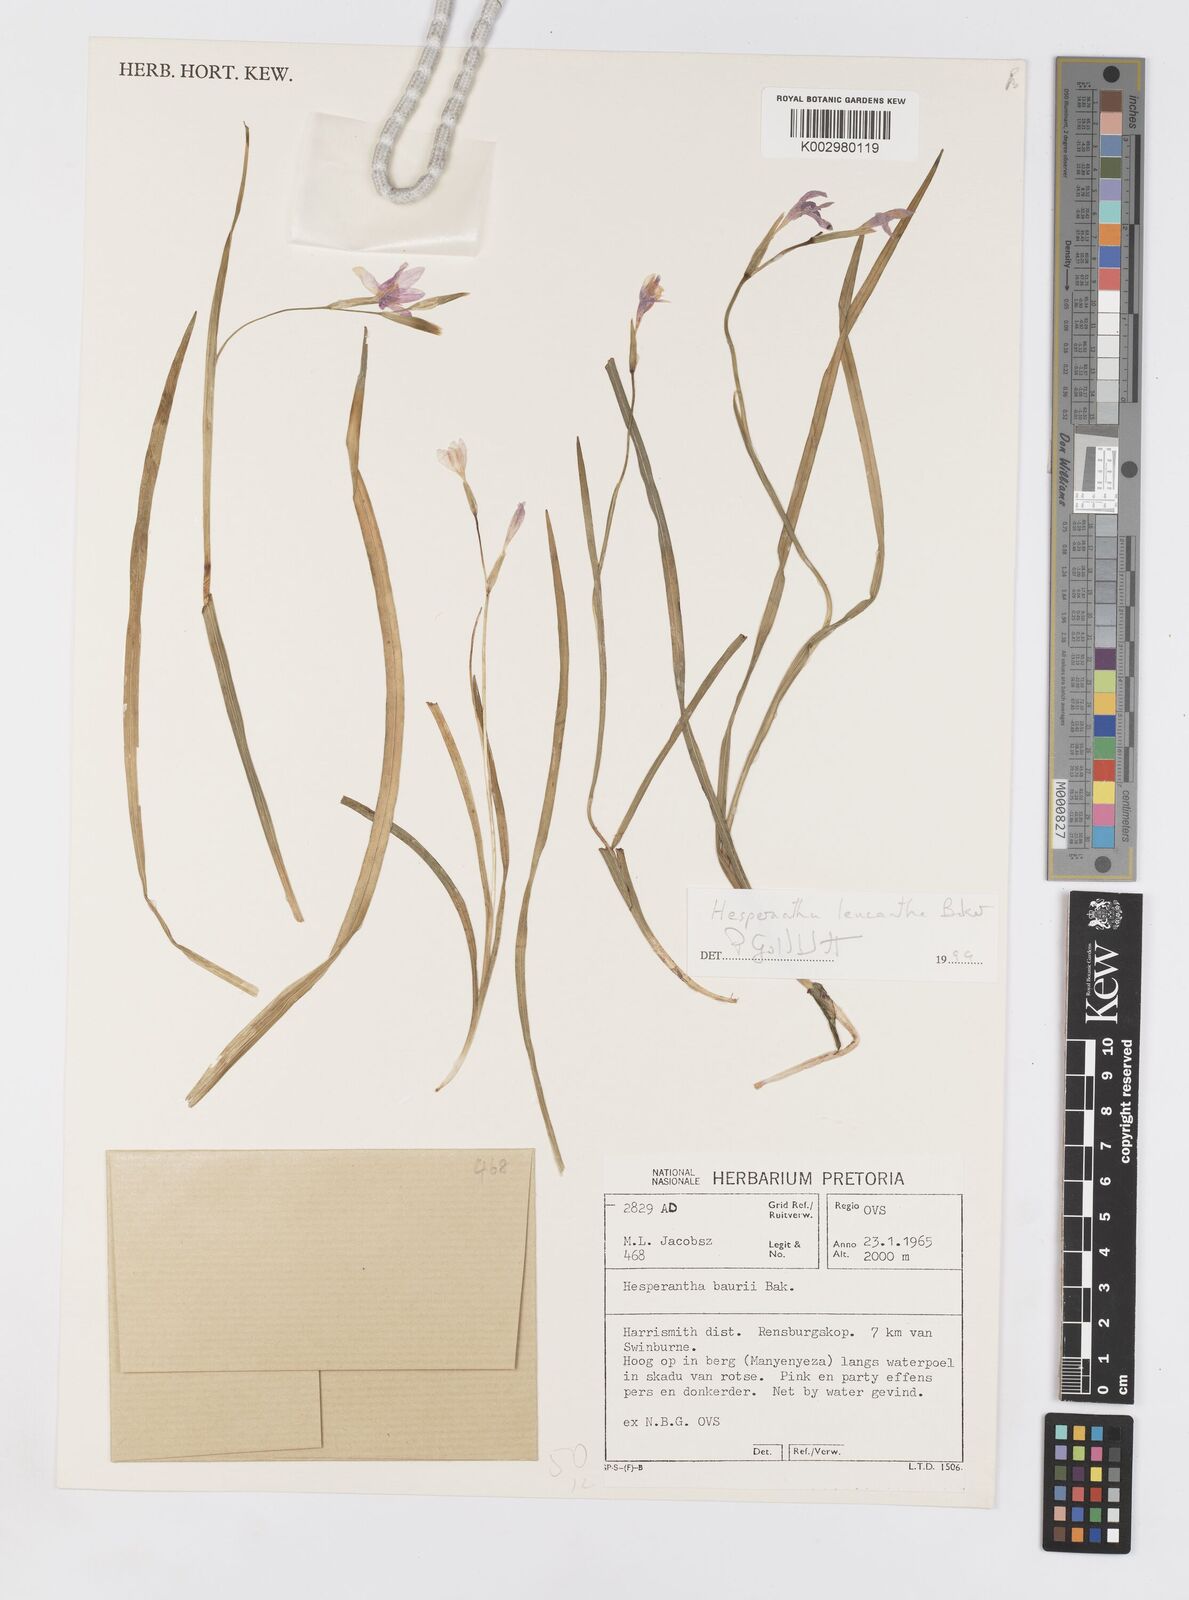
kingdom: Plantae
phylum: Tracheophyta
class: Liliopsida
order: Asparagales
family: Iridaceae
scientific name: Iridaceae
